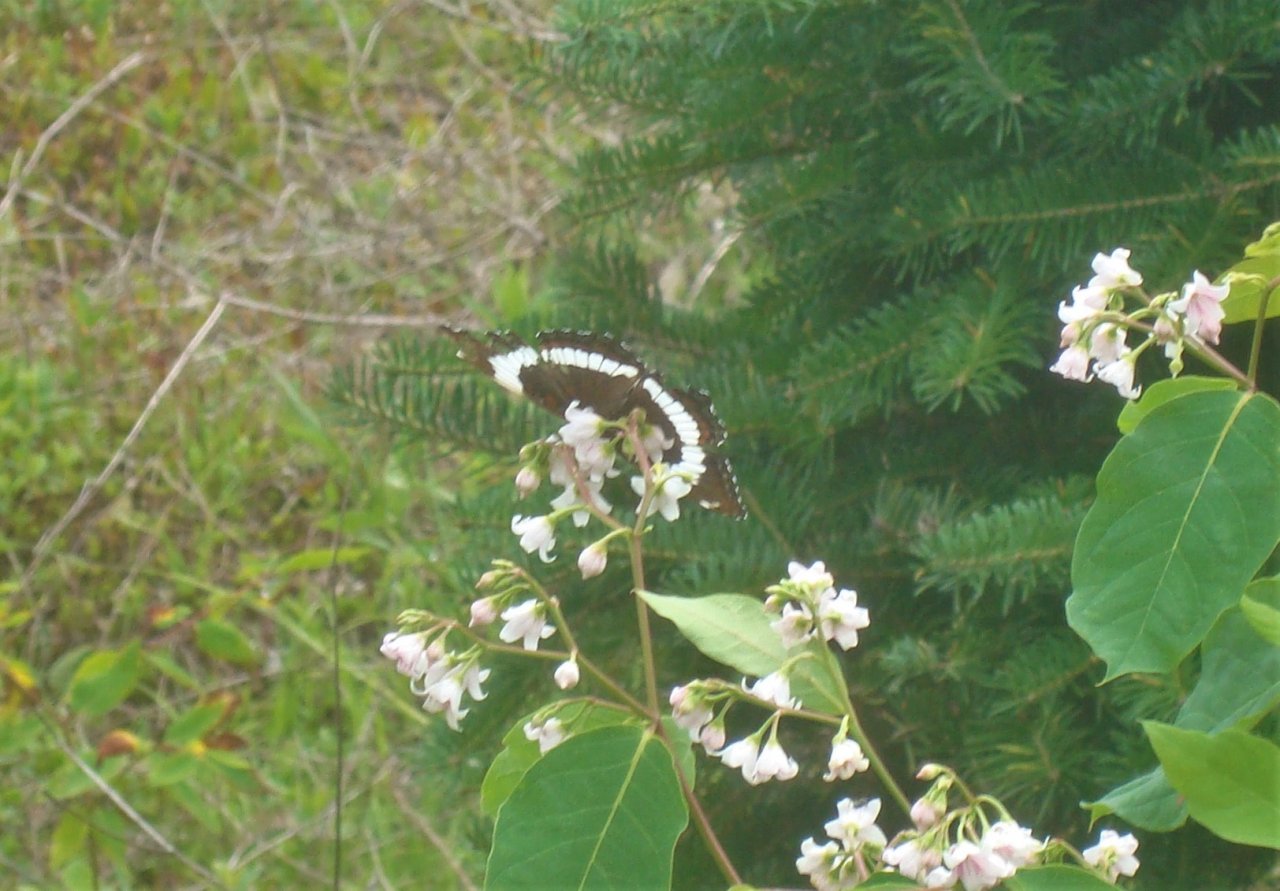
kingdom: Animalia
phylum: Arthropoda
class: Insecta
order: Lepidoptera
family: Nymphalidae
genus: Limenitis
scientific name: Limenitis arthemis
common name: Red-spotted Admiral
